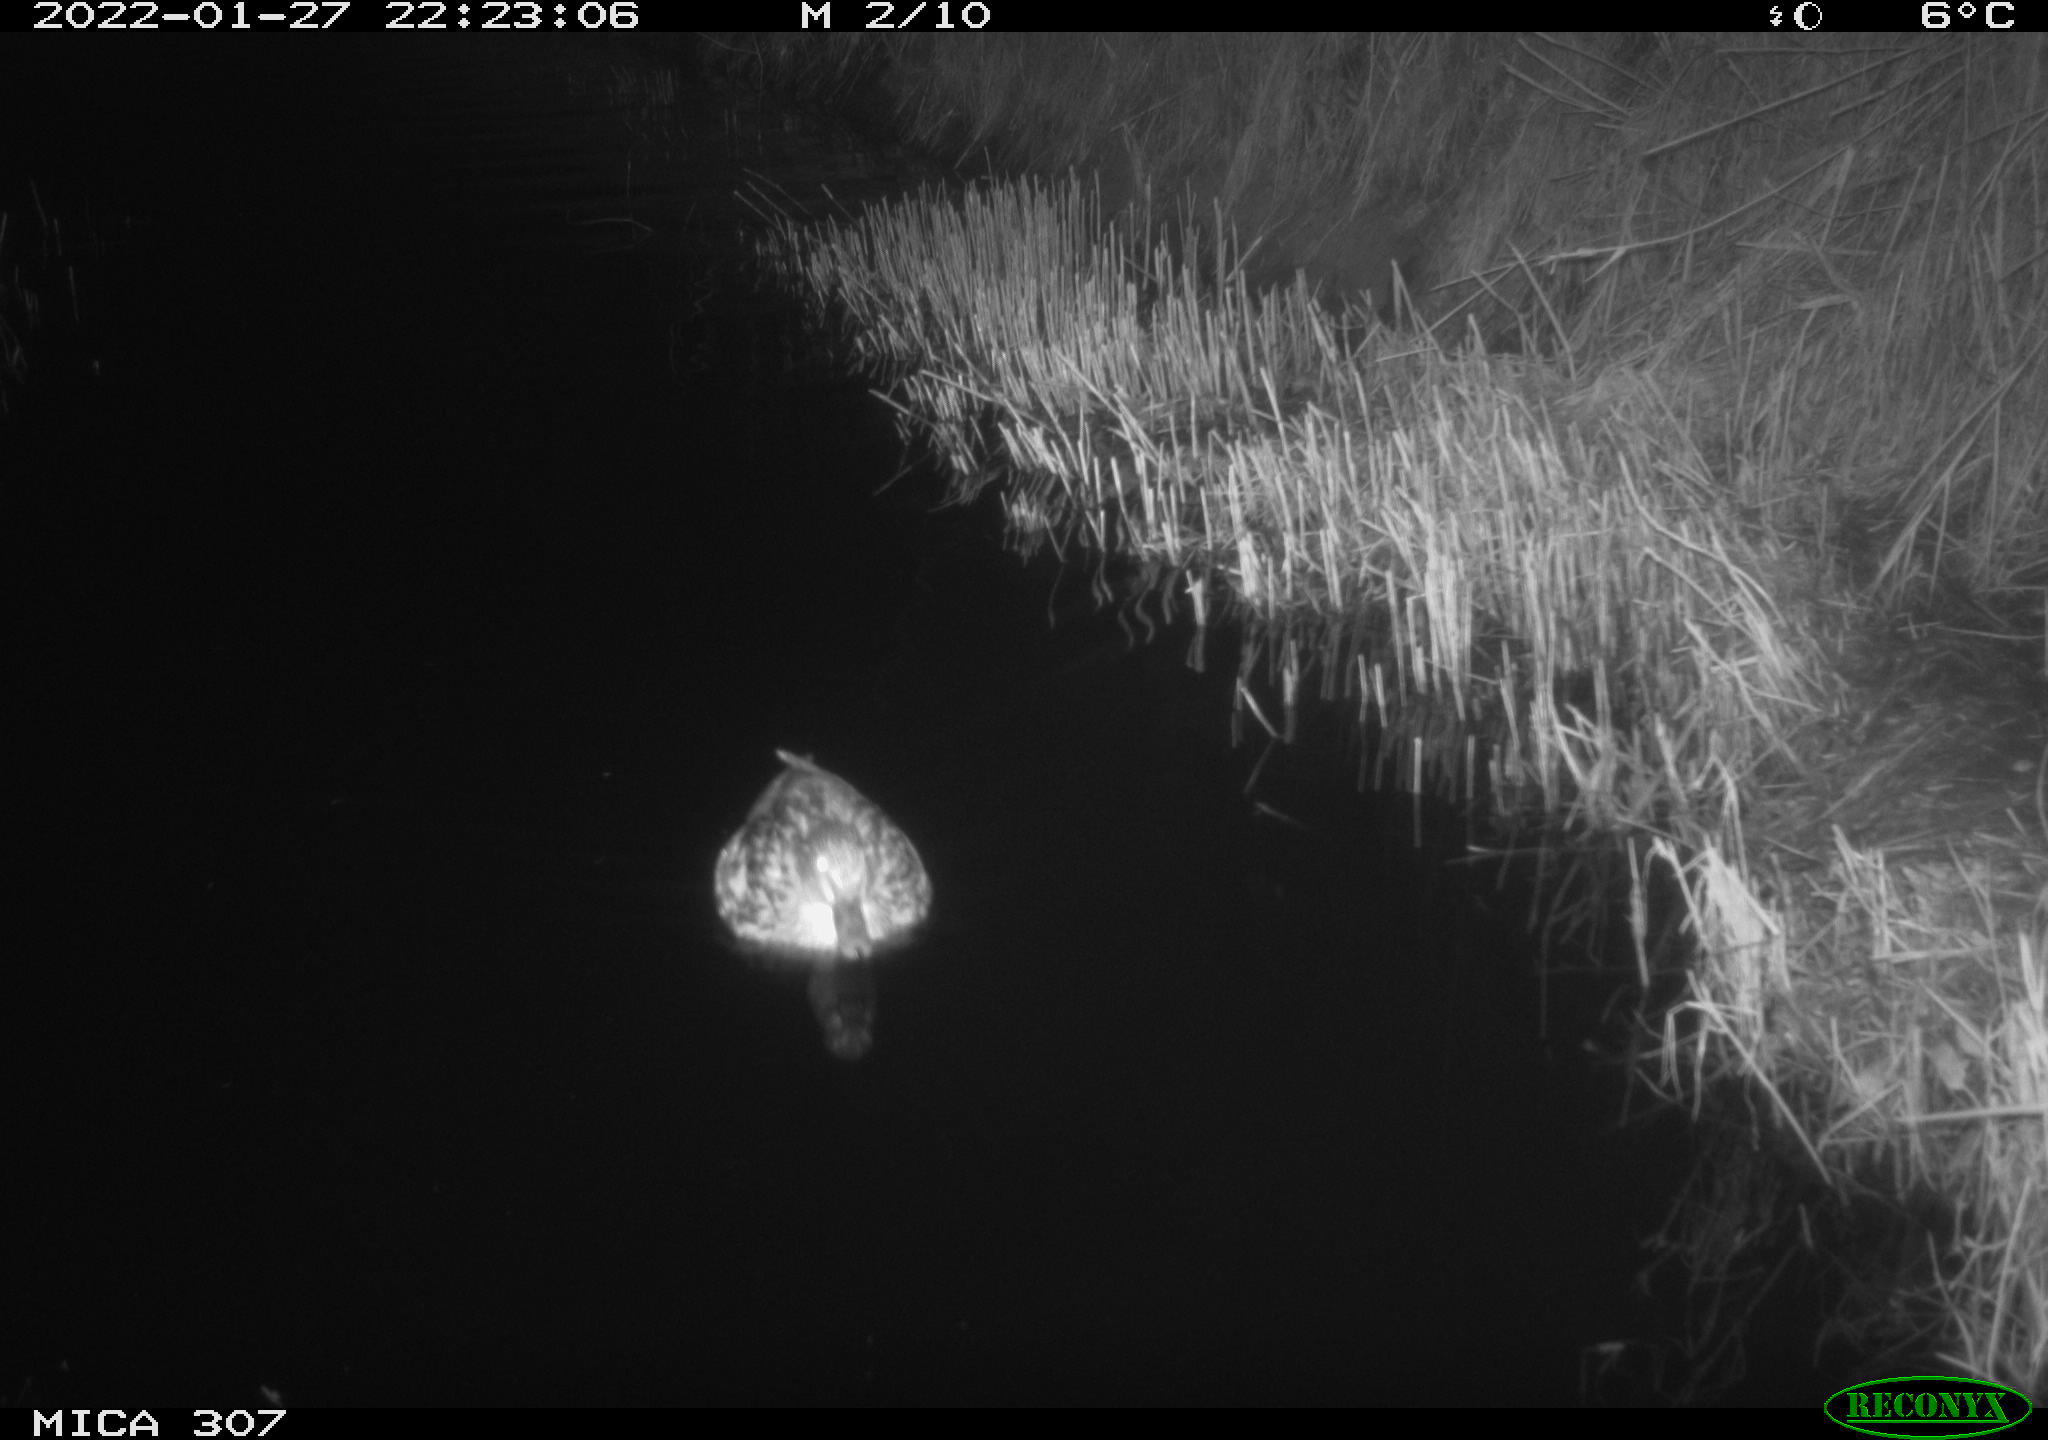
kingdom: Animalia
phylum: Chordata
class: Aves
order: Anseriformes
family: Anatidae
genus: Anas
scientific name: Anas
